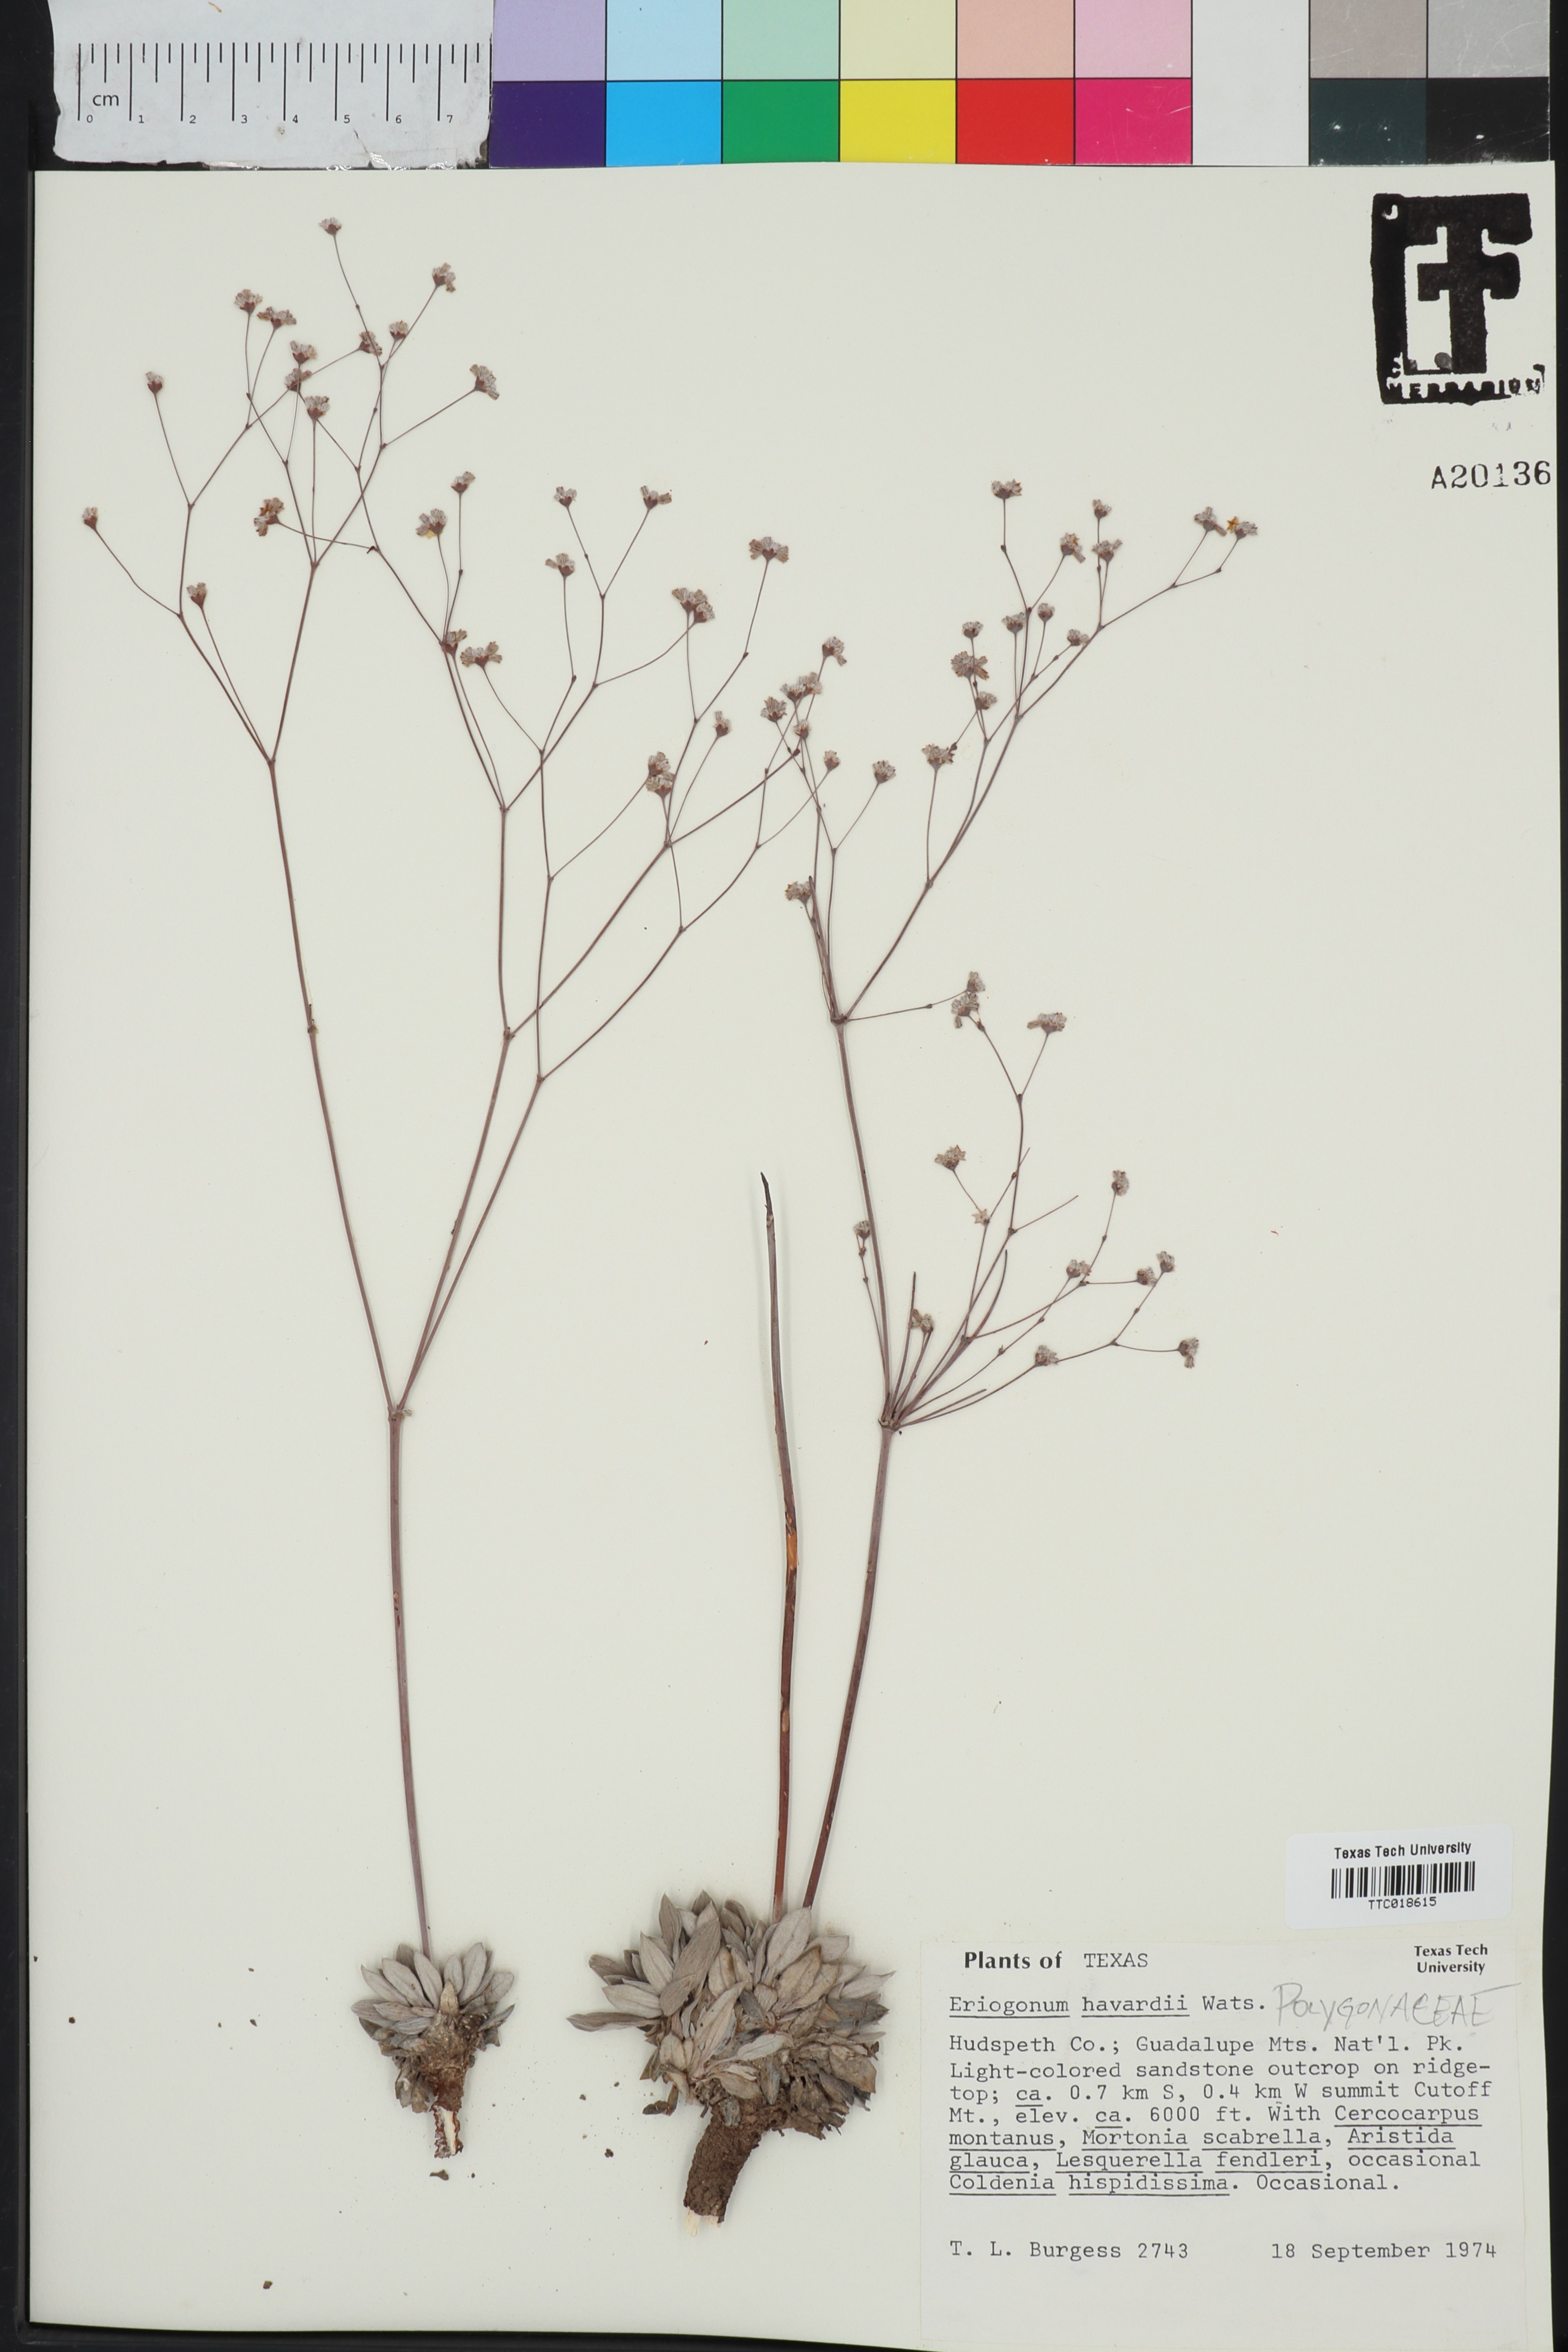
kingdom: Plantae
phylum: Tracheophyta
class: Magnoliopsida
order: Caryophyllales
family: Polygonaceae
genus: Eriogonum
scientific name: Eriogonum havardii
